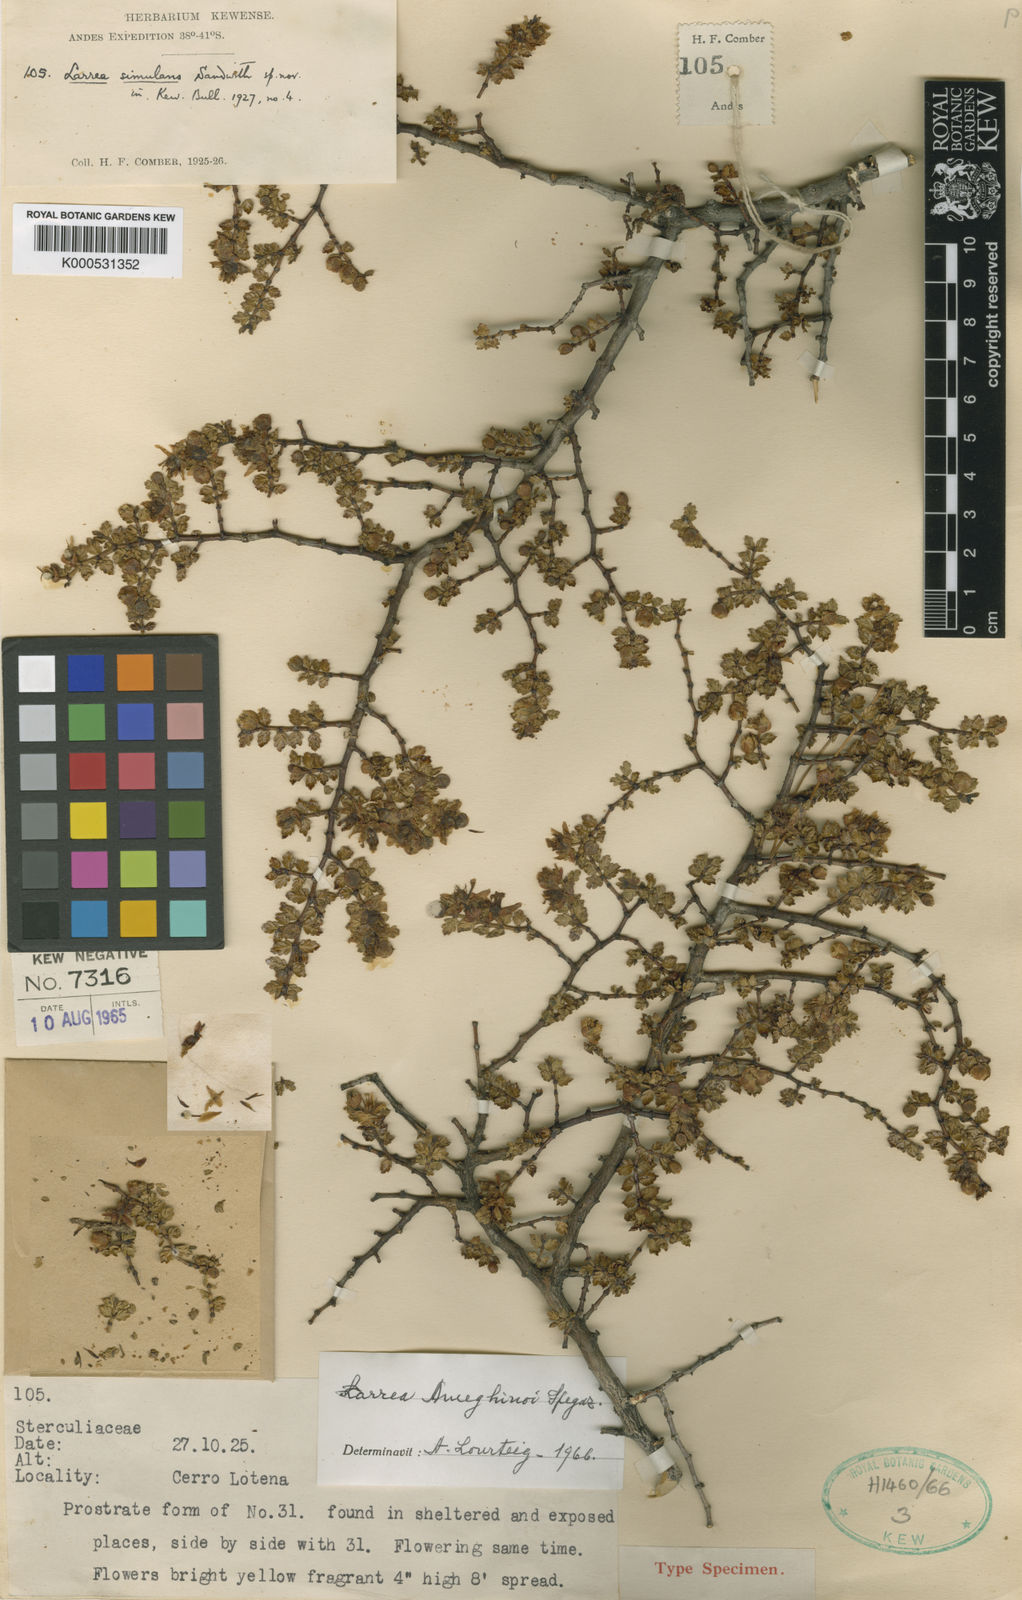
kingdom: Plantae
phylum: Tracheophyta
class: Magnoliopsida
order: Zygophyllales
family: Zygophyllaceae
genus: Larrea
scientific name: Larrea simulans
